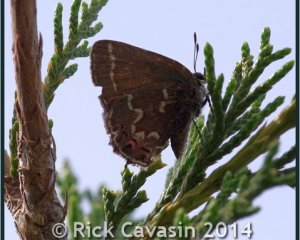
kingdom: Animalia
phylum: Arthropoda
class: Insecta
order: Lepidoptera
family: Lycaenidae
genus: Mitoura
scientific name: Mitoura gryneus
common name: Juniper Hairstreak
